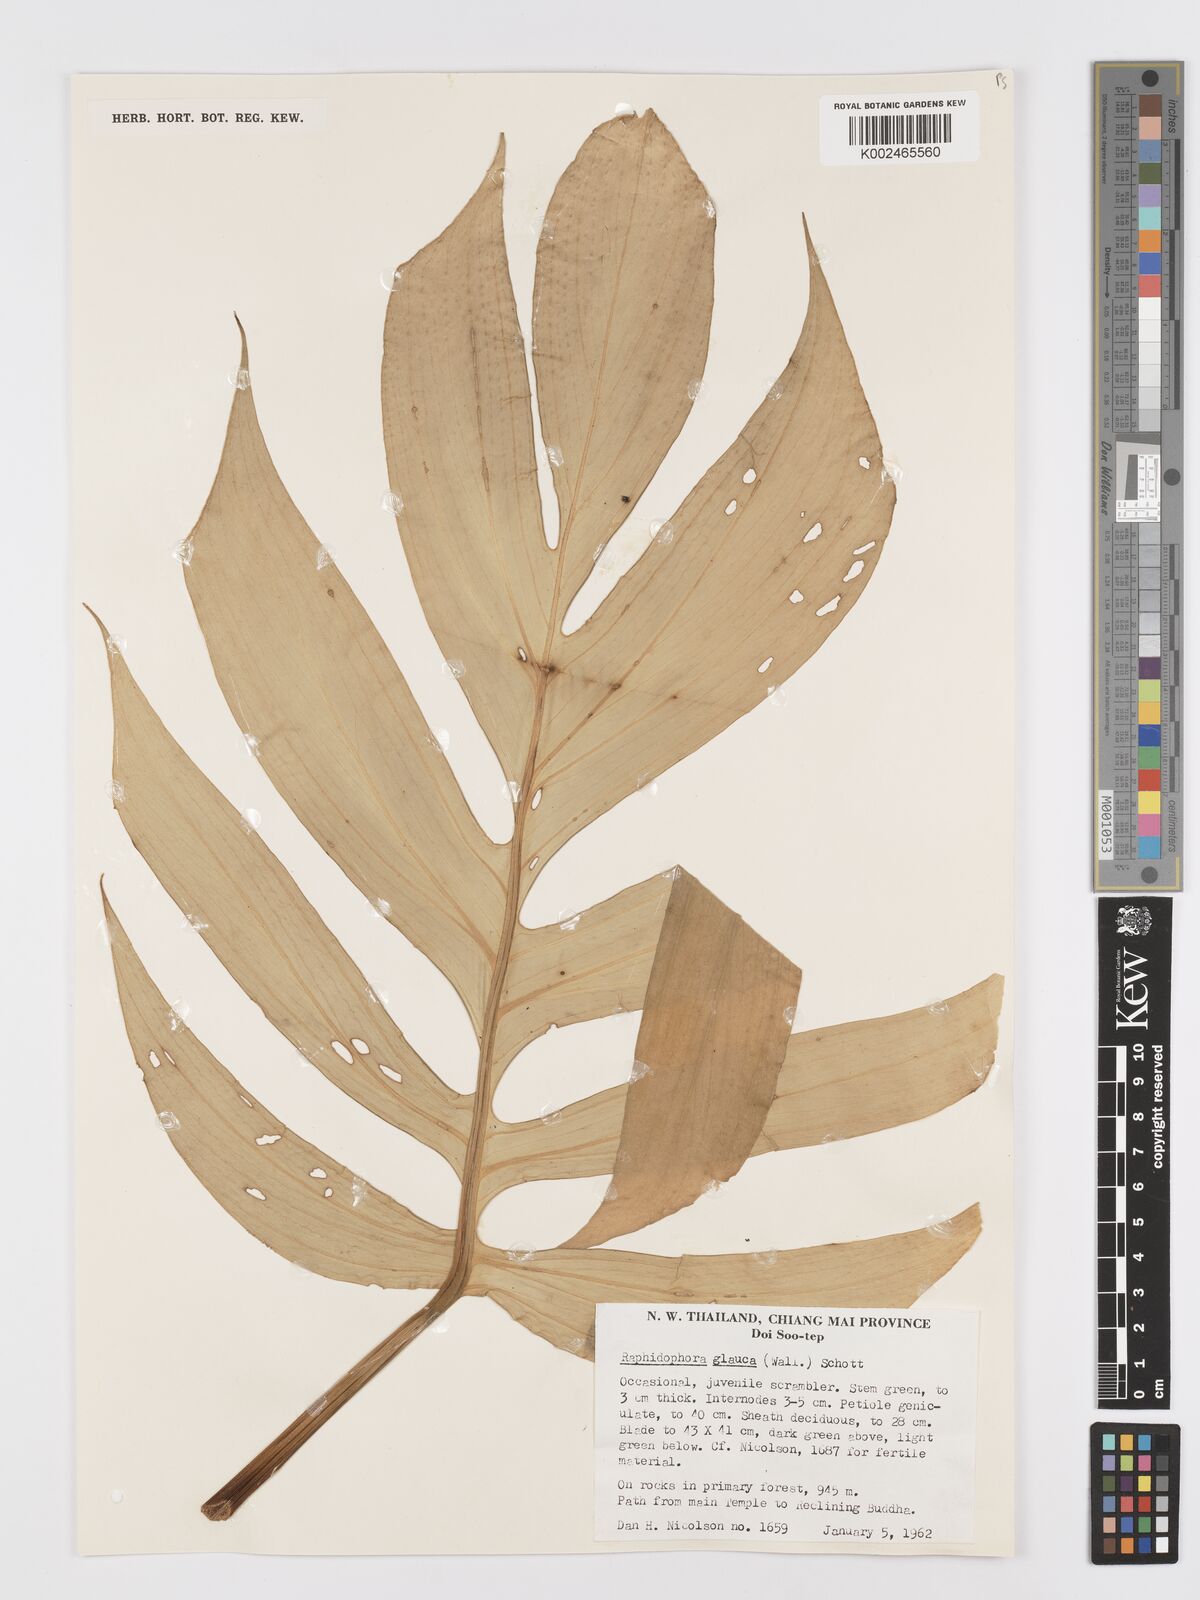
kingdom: Plantae
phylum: Tracheophyta
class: Liliopsida
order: Alismatales
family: Araceae
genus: Rhaphidophora
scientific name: Rhaphidophora glauca
